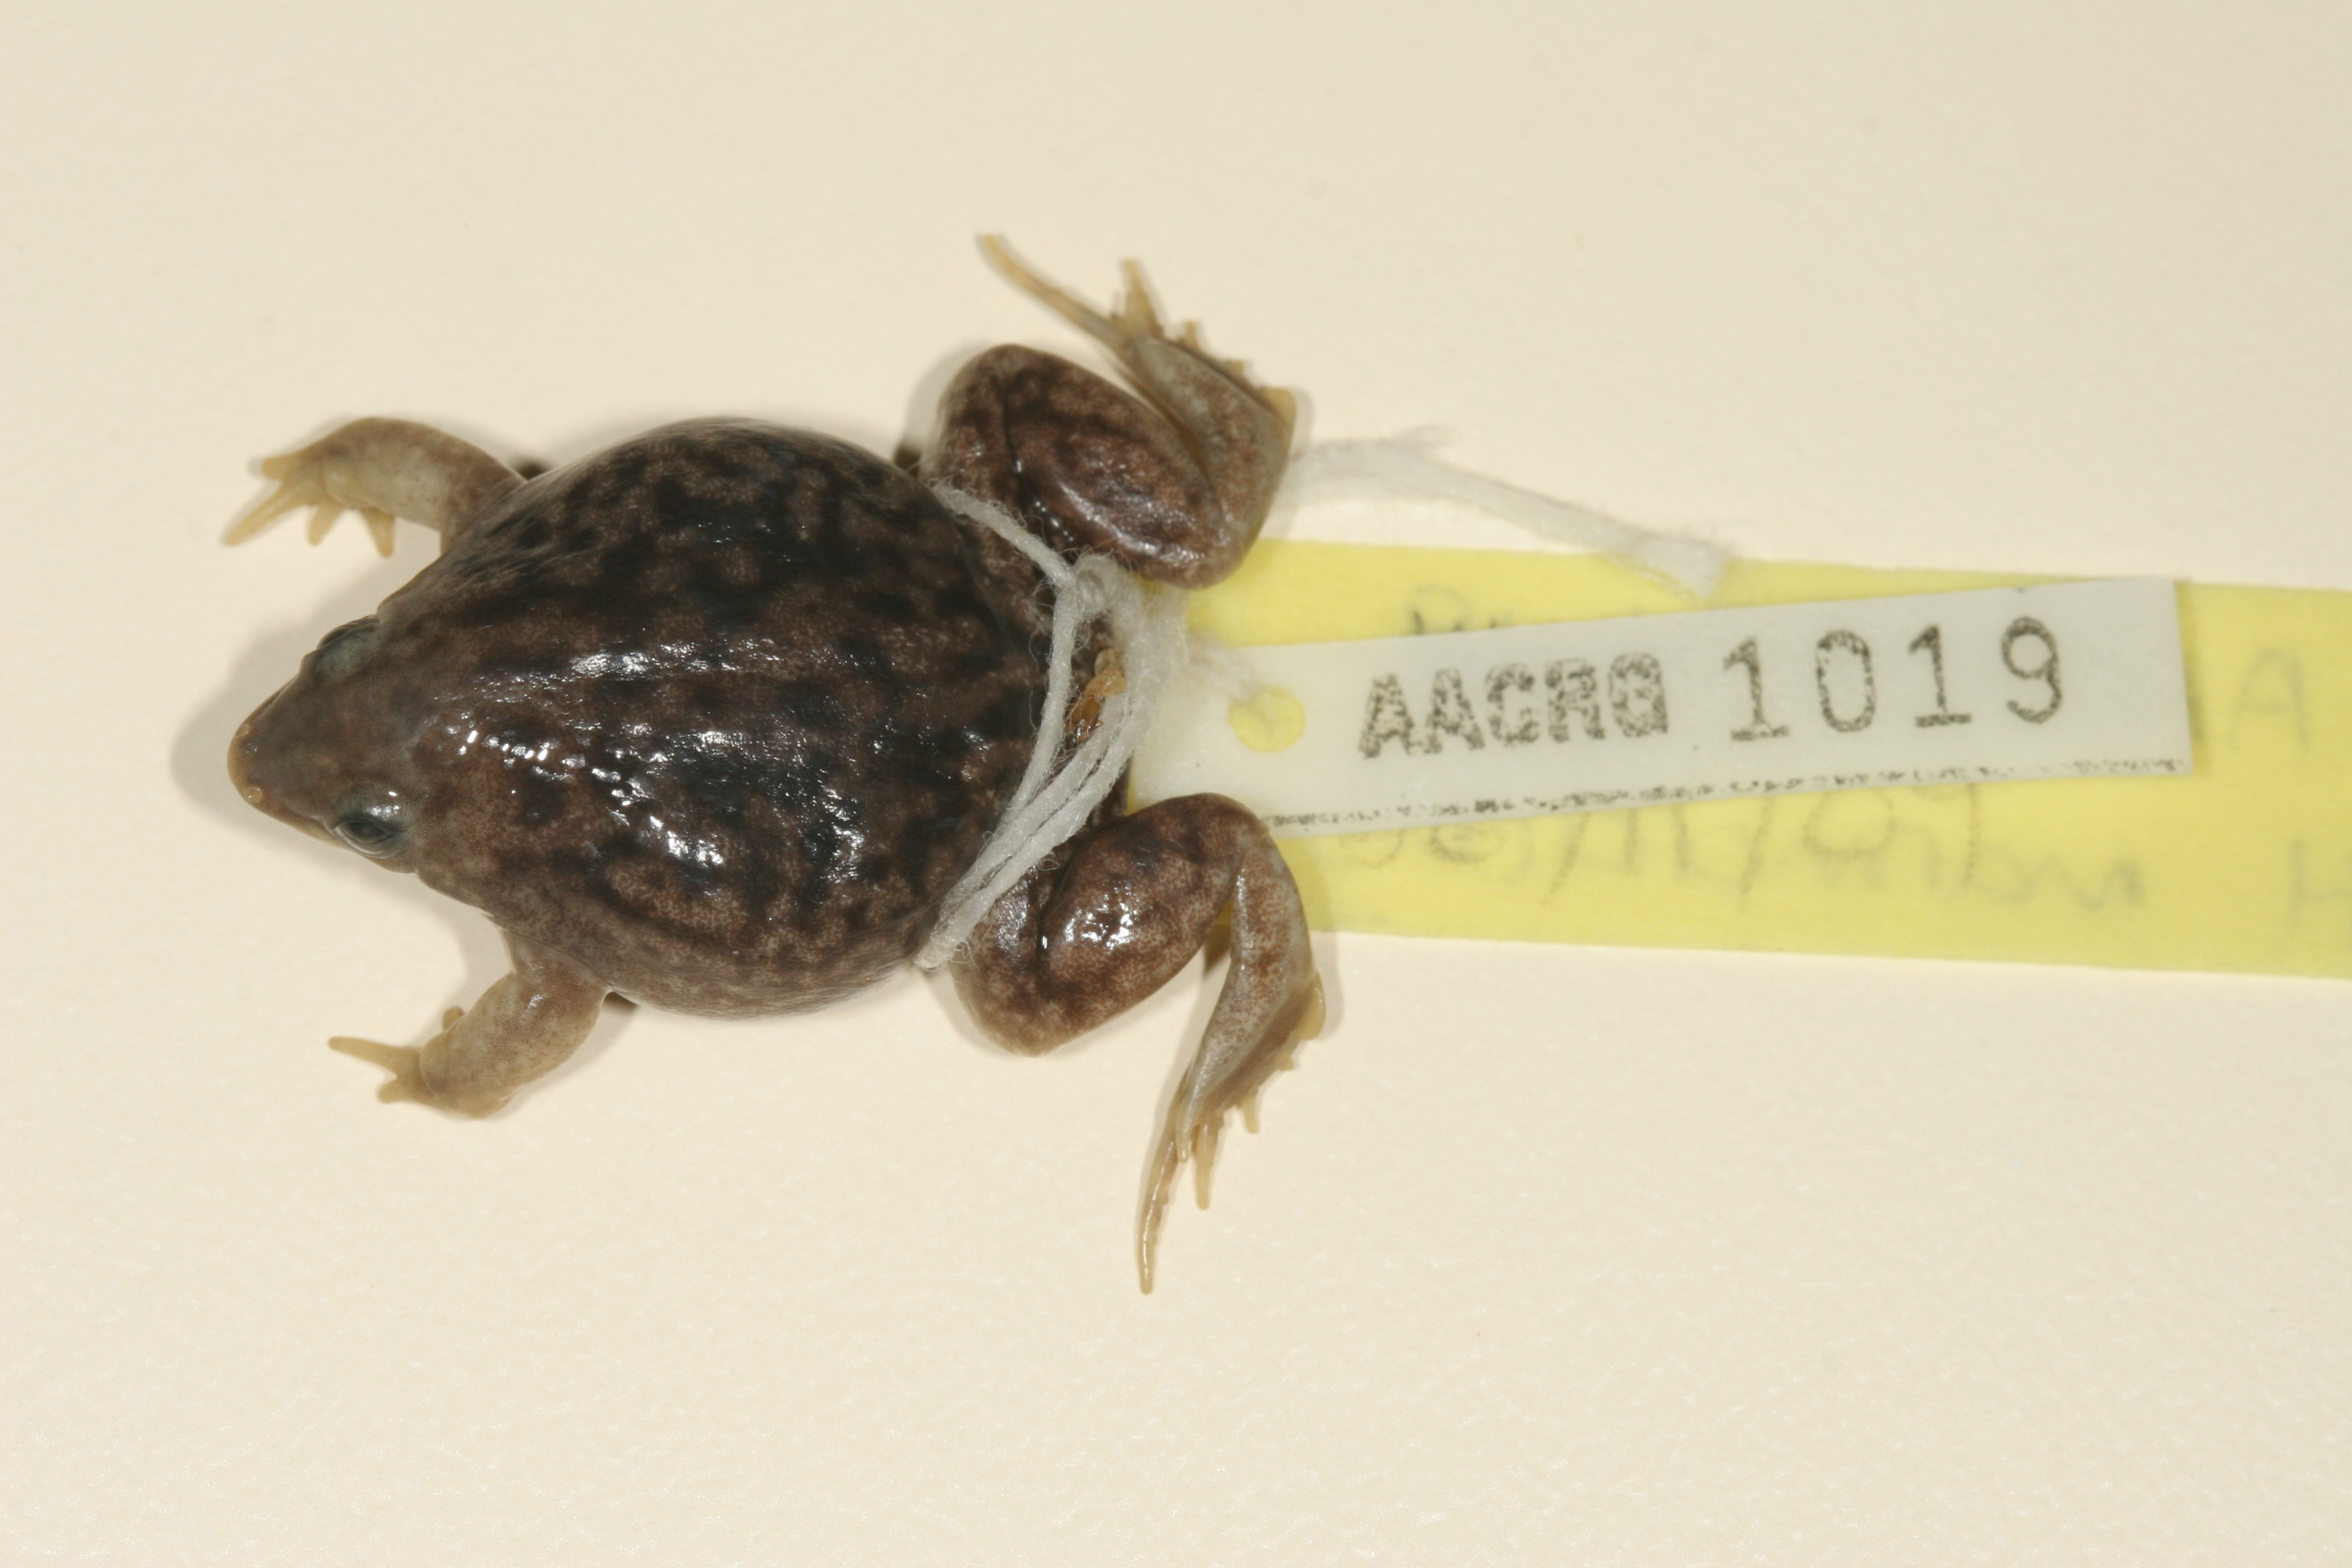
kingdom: Animalia
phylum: Chordata
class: Amphibia
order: Anura
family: Hemisotidae
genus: Hemisus
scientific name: Hemisus marmoratus
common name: Mottled shovel-nosed frog
